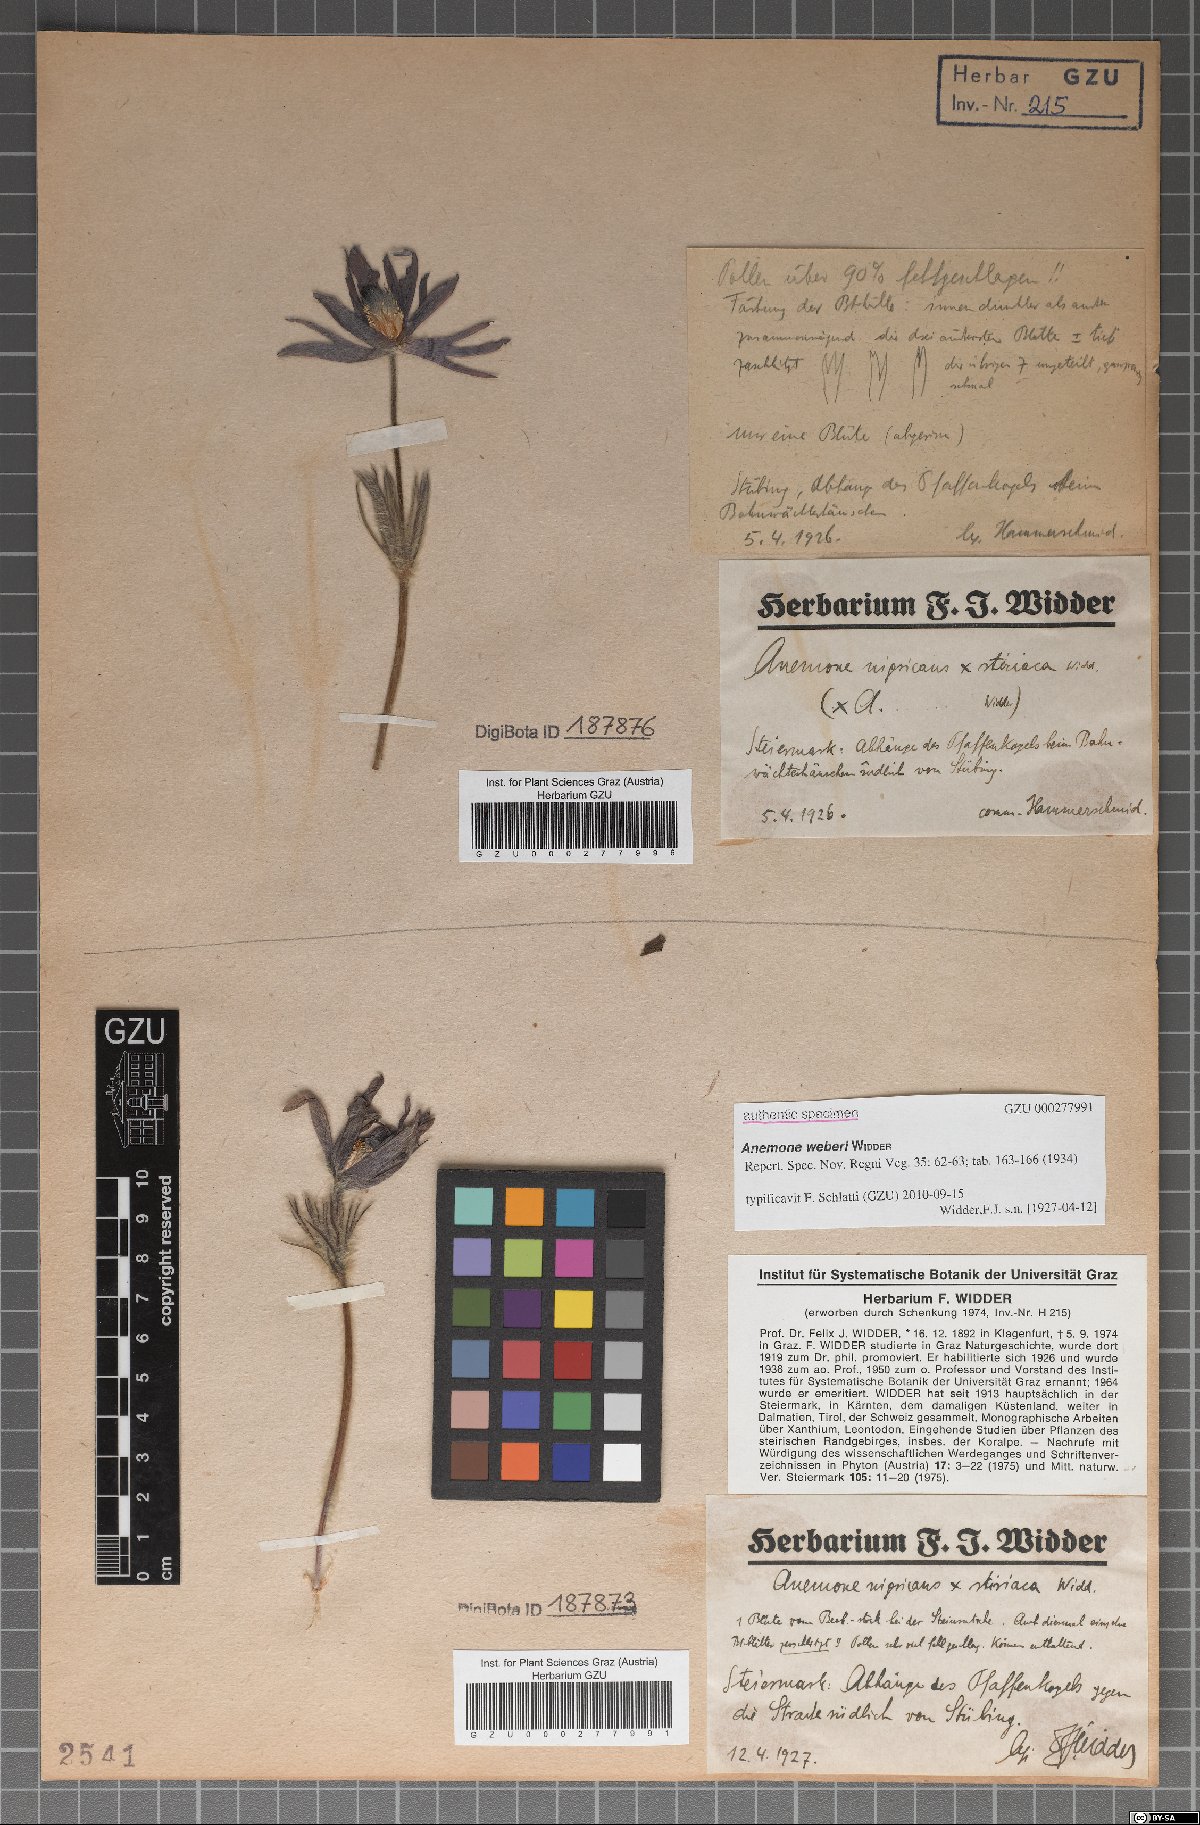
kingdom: Plantae
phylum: Tracheophyta
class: Magnoliopsida
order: Ranunculales
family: Ranunculaceae
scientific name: Ranunculaceae
